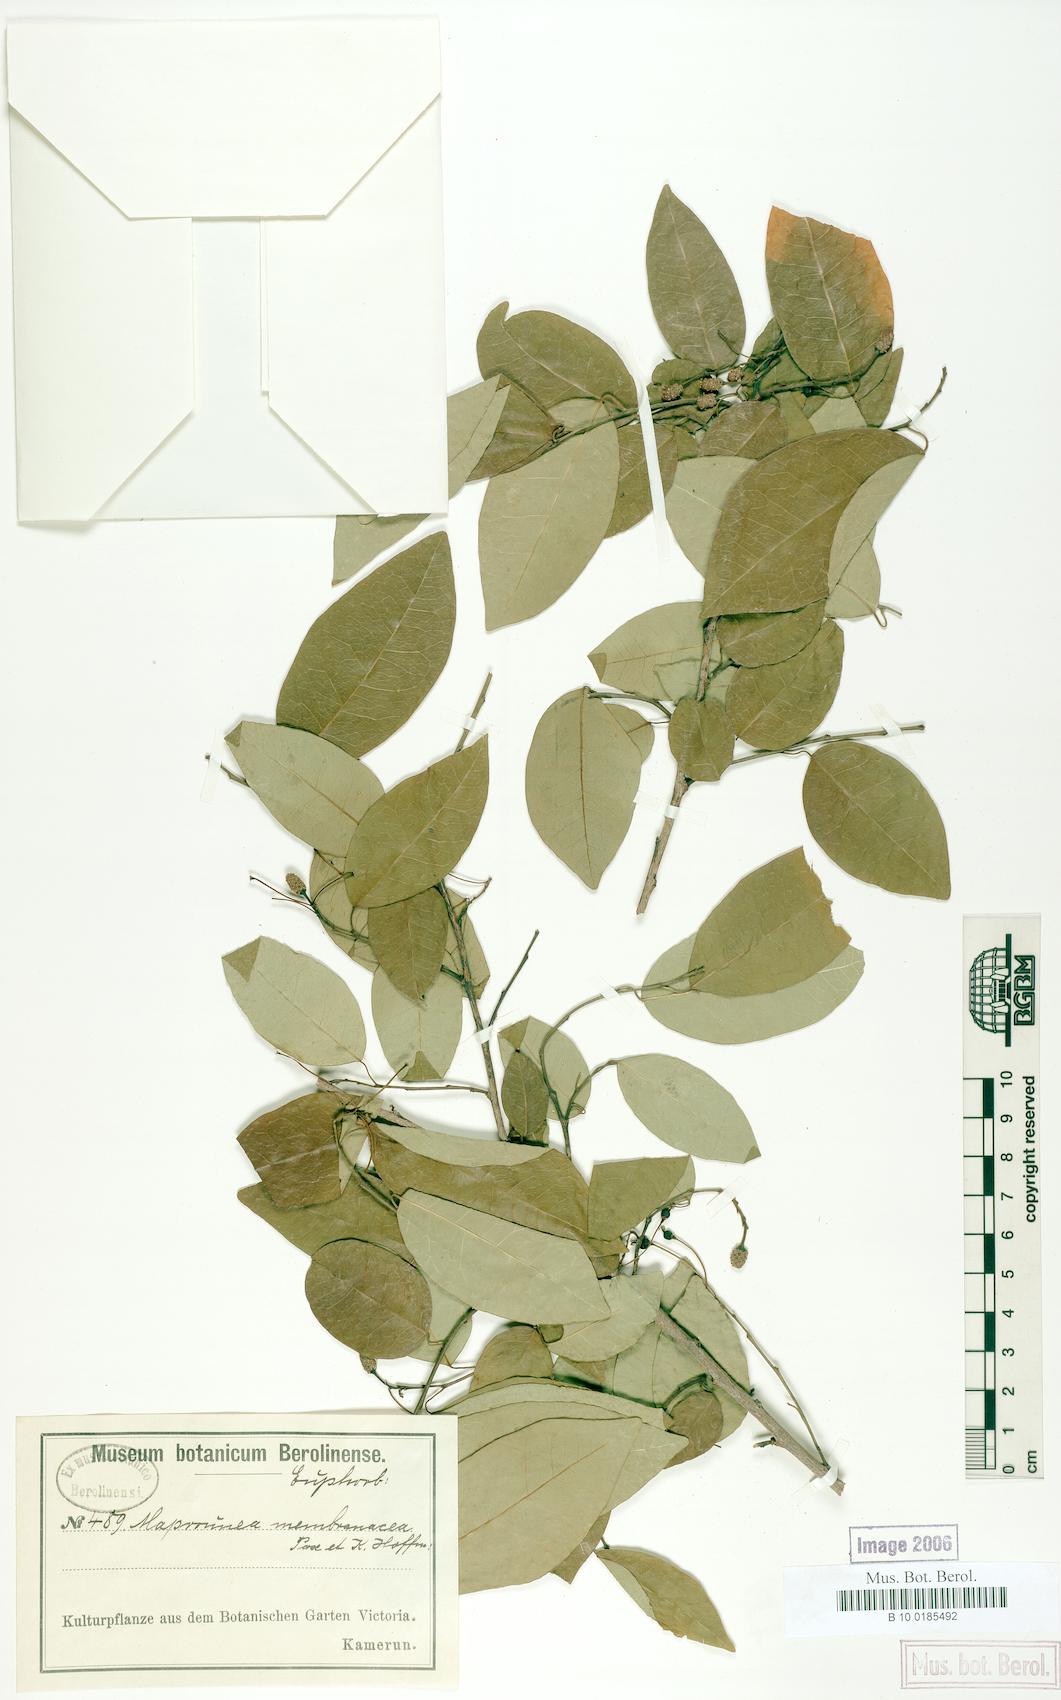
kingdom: Plantae
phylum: Tracheophyta
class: Magnoliopsida
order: Malpighiales
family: Euphorbiaceae
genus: Maprounea
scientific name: Maprounea membranacea
